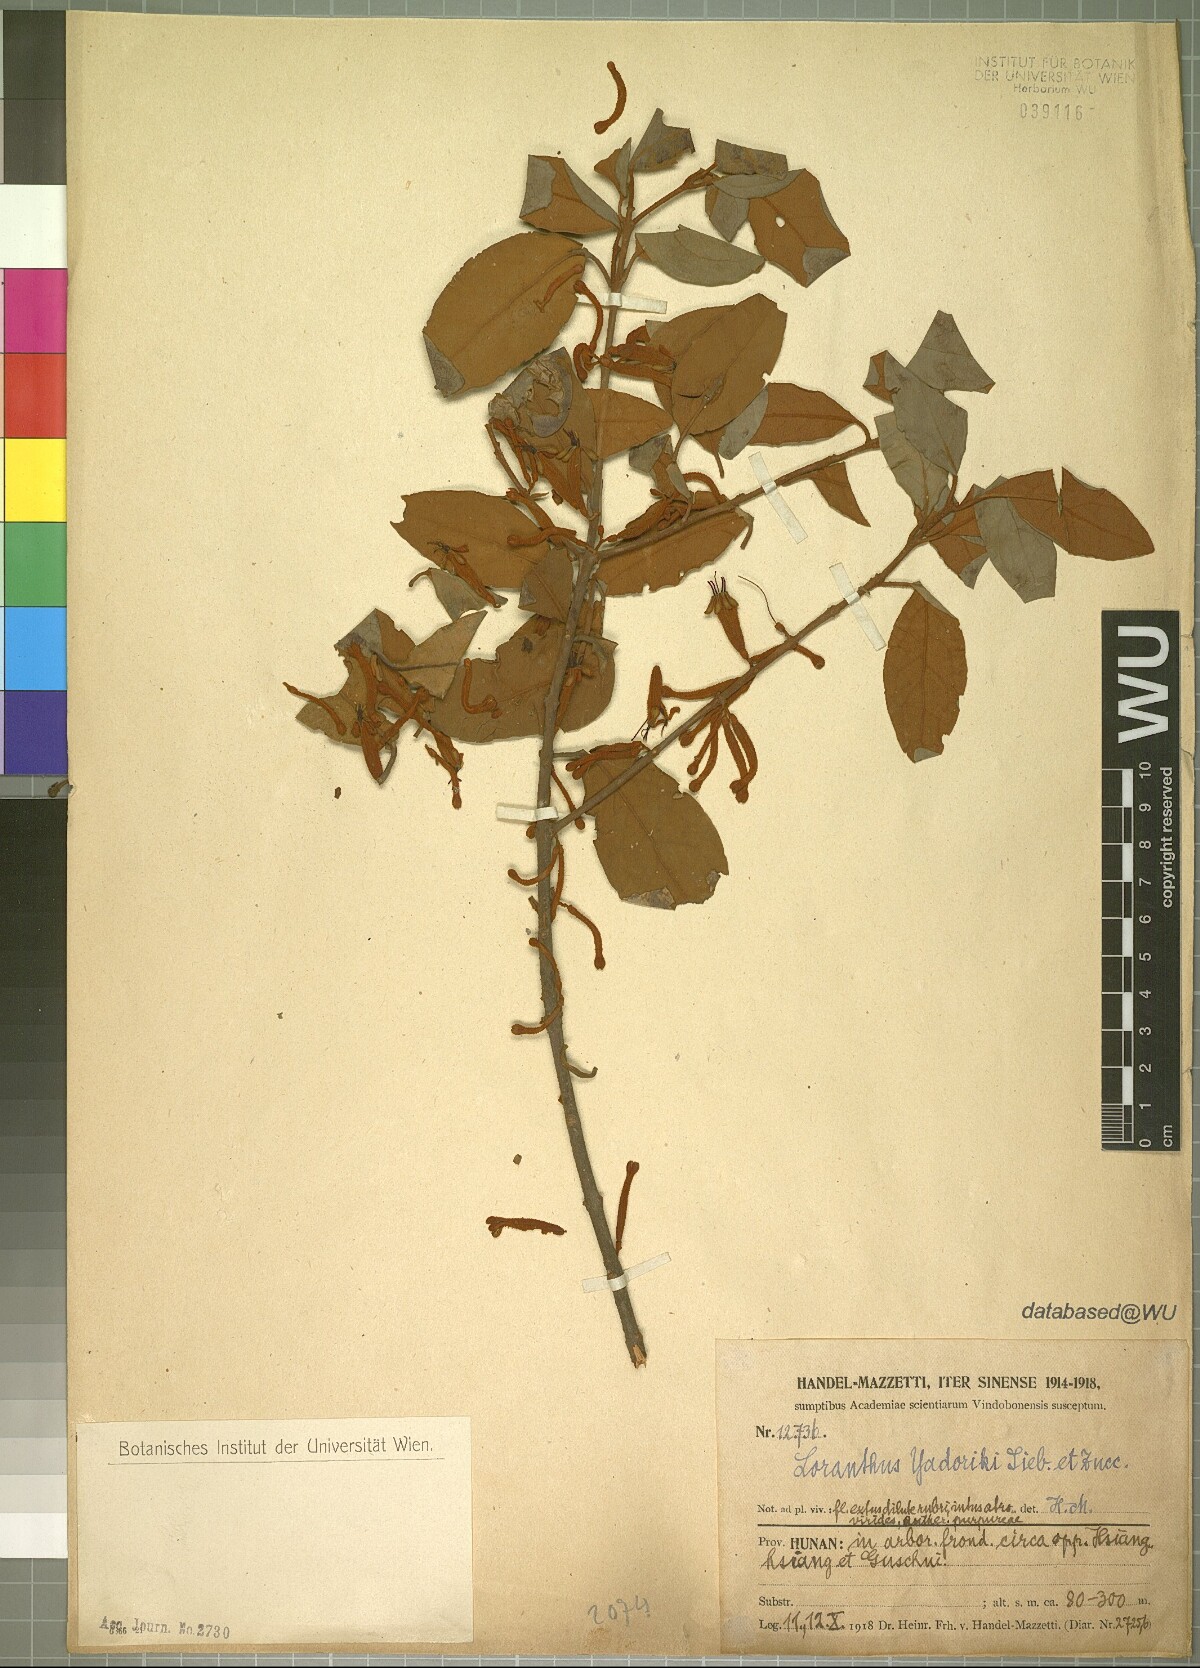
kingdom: Plantae
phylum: Tracheophyta
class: Magnoliopsida
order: Santalales
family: Loranthaceae
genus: Taxillus
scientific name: Taxillus sutchuenensis
